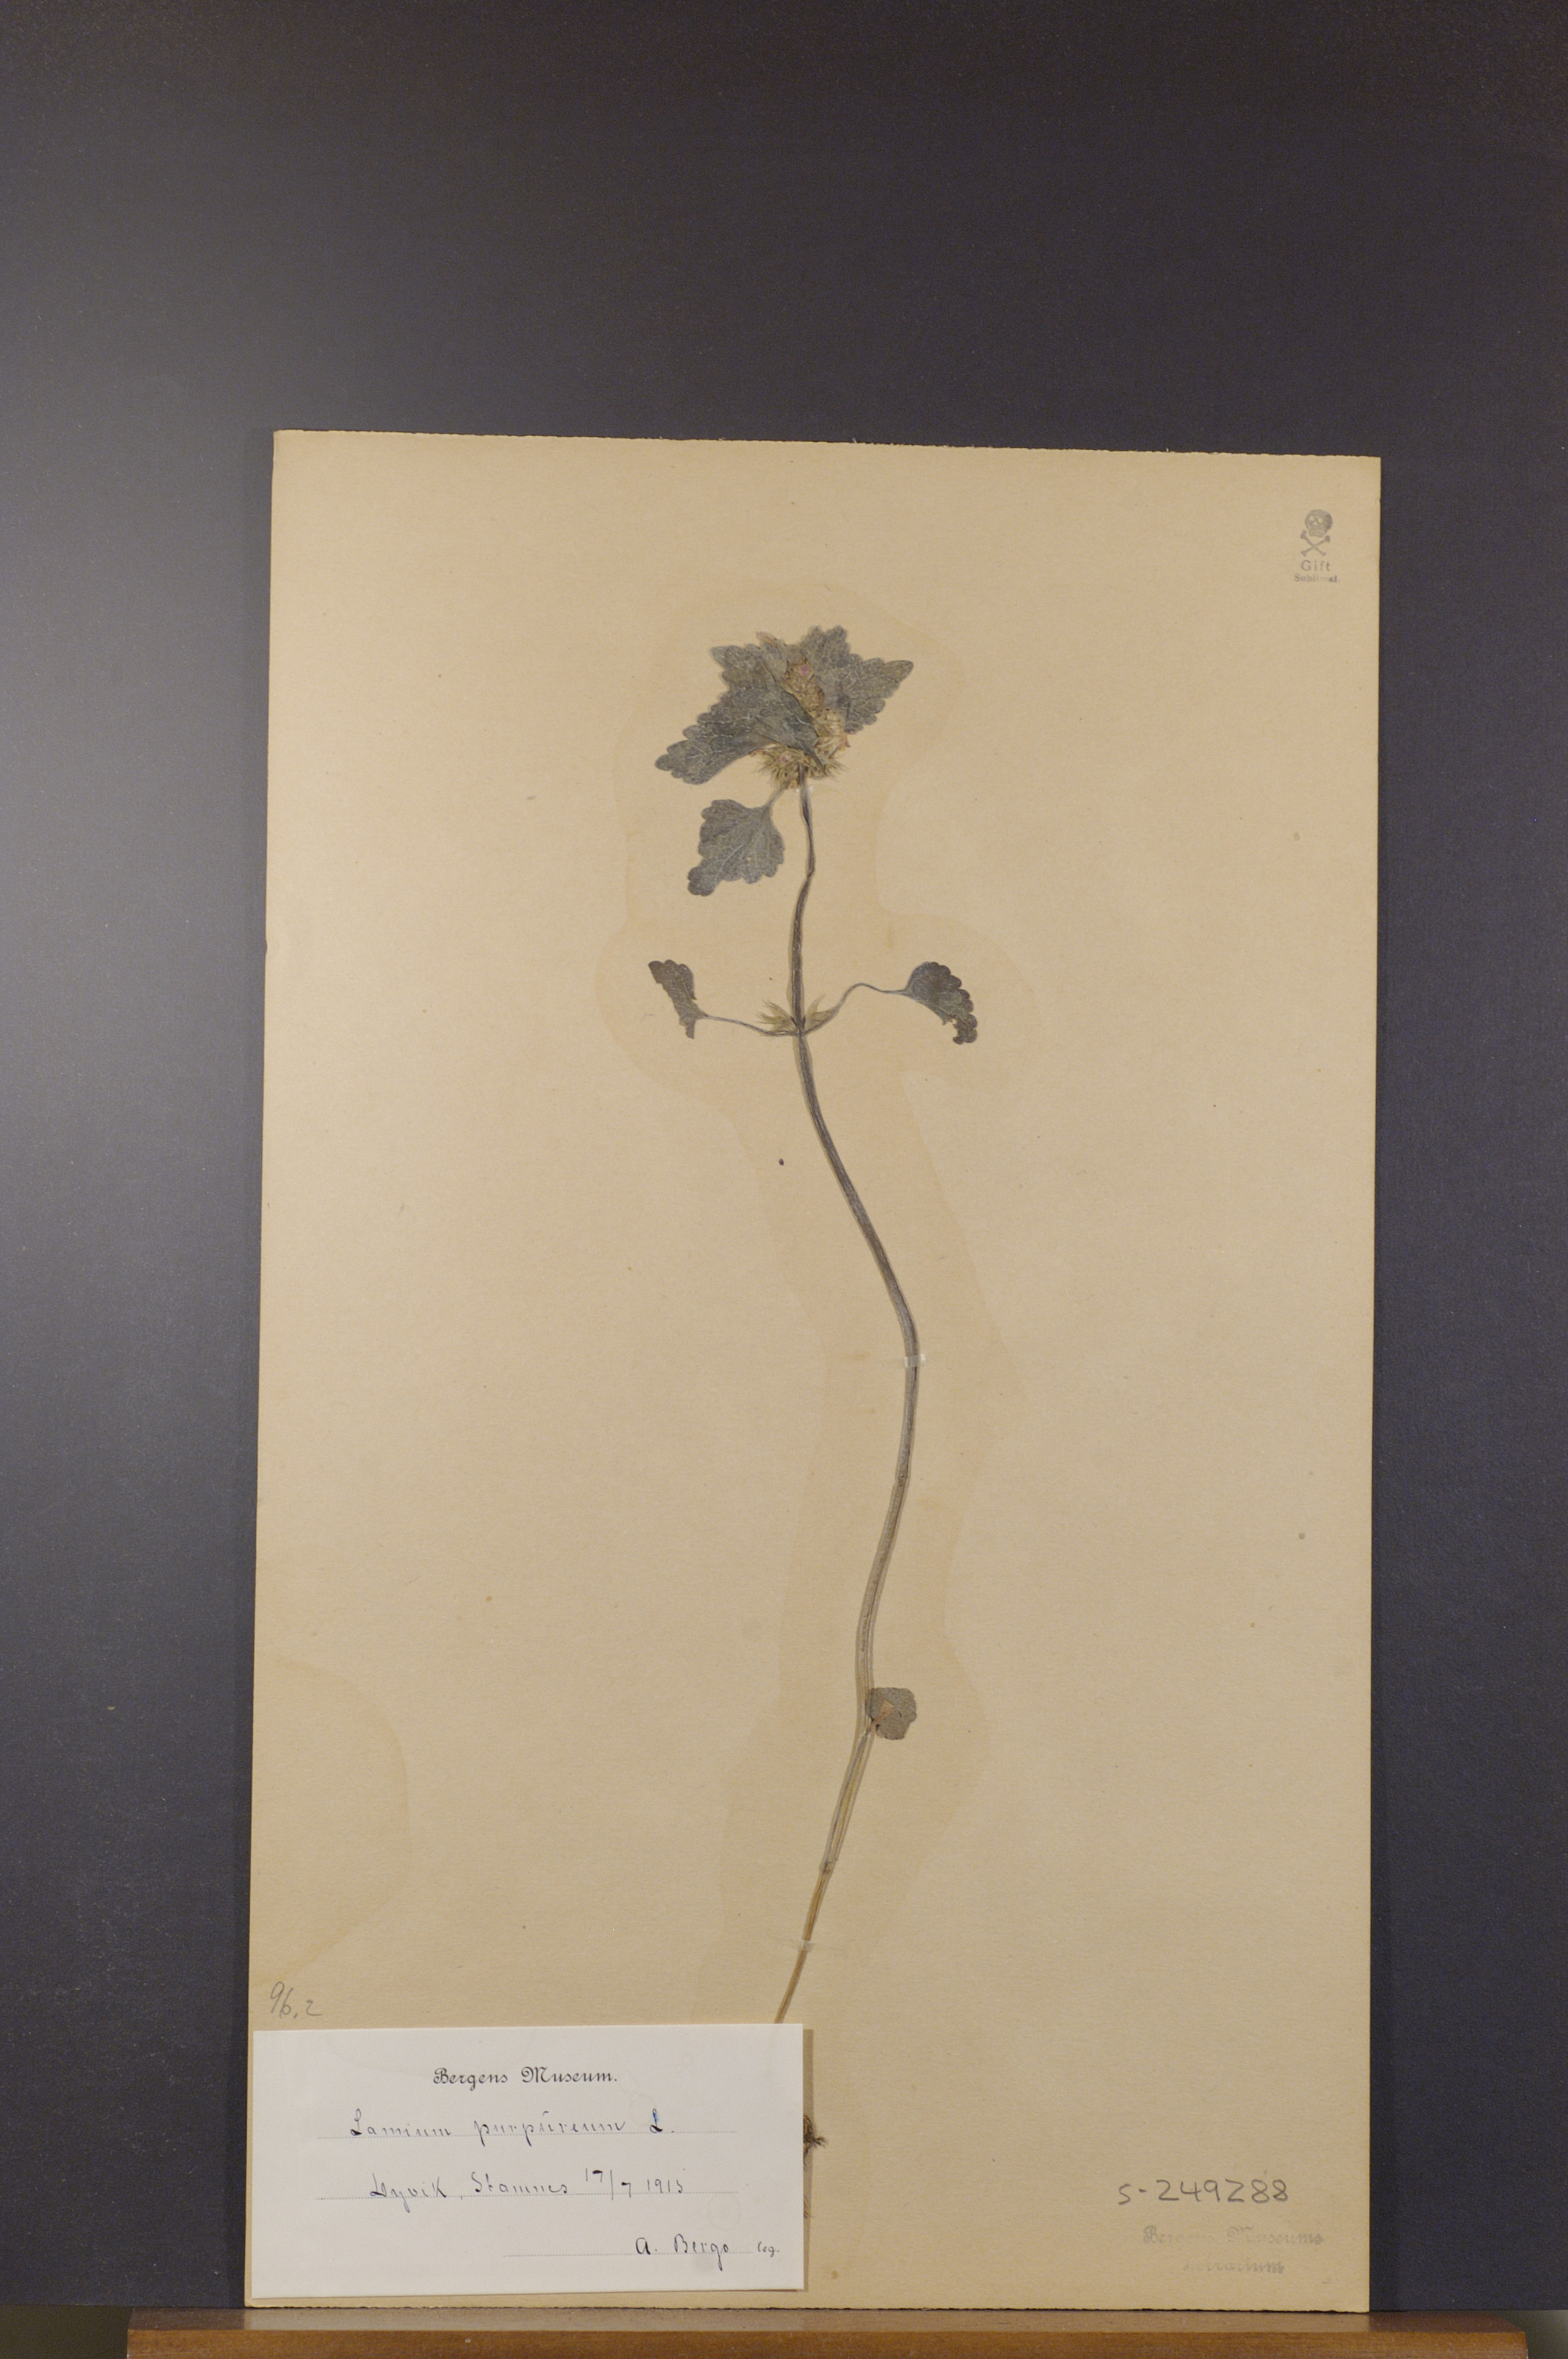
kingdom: Plantae
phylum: Tracheophyta
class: Magnoliopsida
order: Lamiales
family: Lamiaceae
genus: Lamium
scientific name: Lamium purpureum
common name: Red dead-nettle
